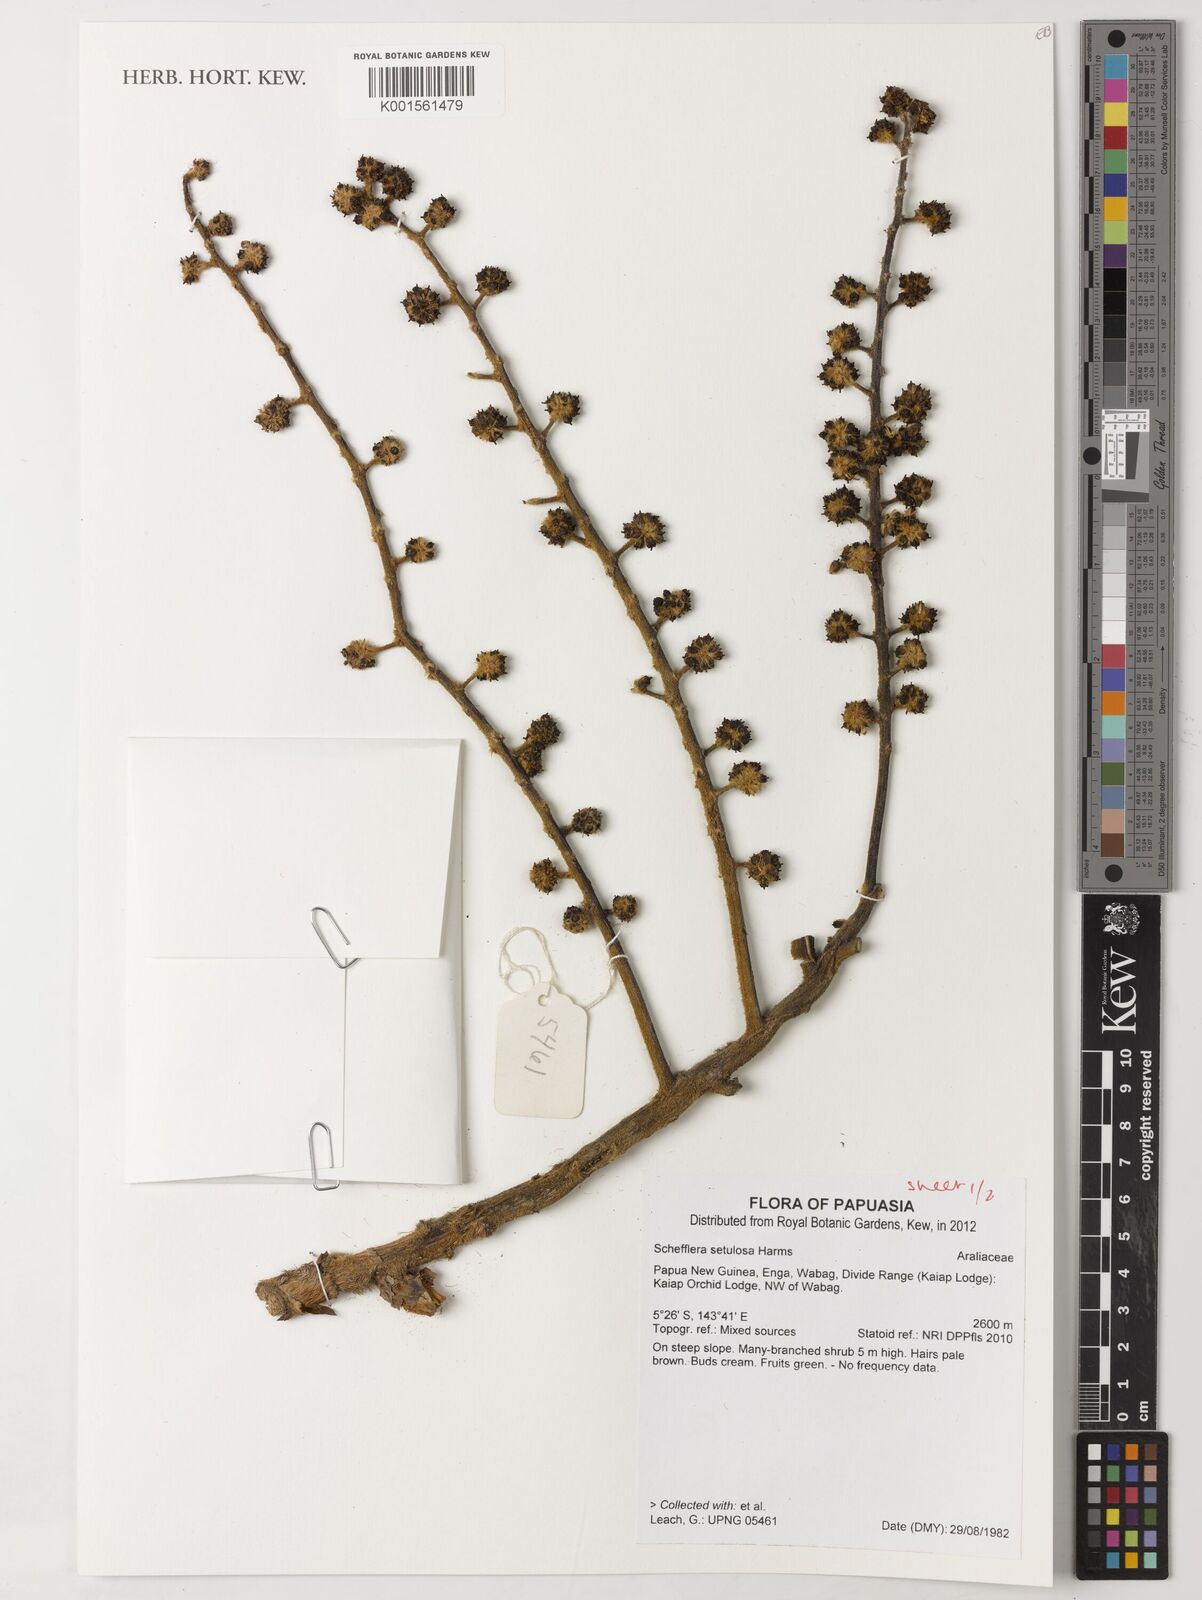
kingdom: Plantae
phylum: Tracheophyta
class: Magnoliopsida
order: Apiales
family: Araliaceae
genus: Heptapleurum
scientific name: Heptapleurum setulosum
